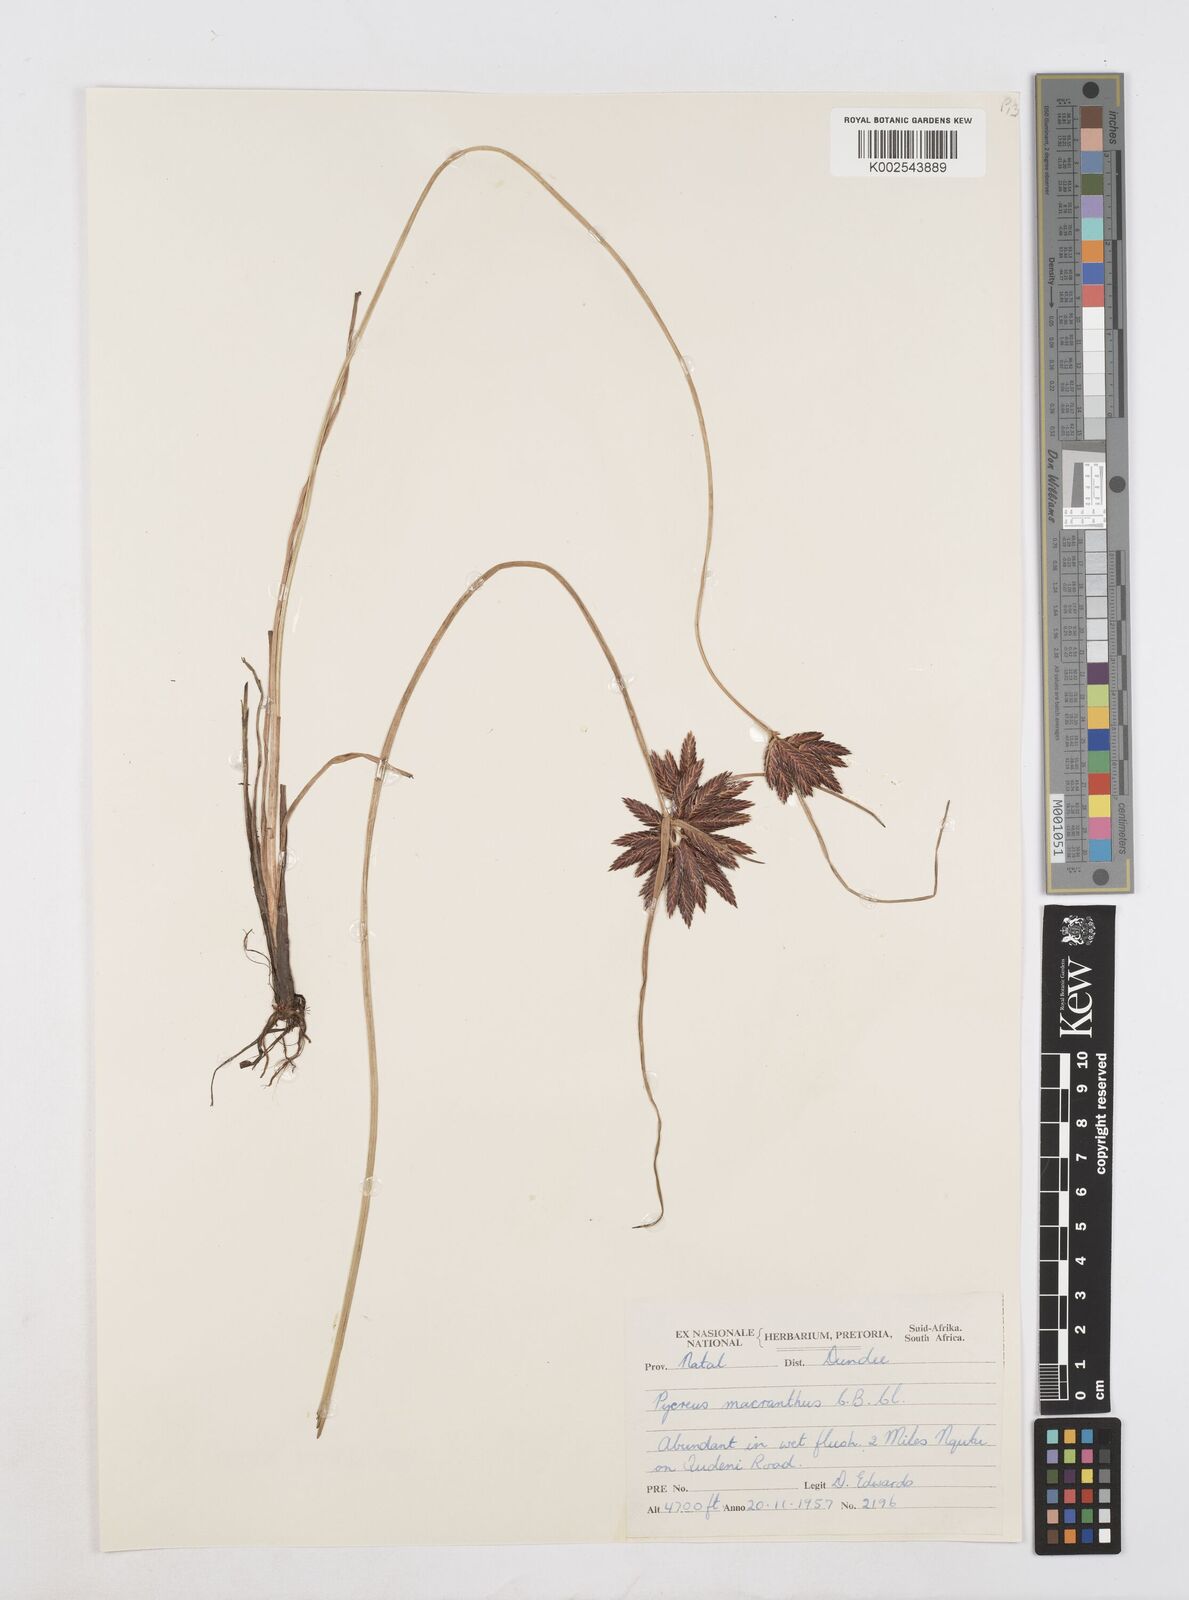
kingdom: Plantae
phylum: Tracheophyta
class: Liliopsida
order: Poales
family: Cyperaceae
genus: Cyperus
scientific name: Cyperus nigricans
